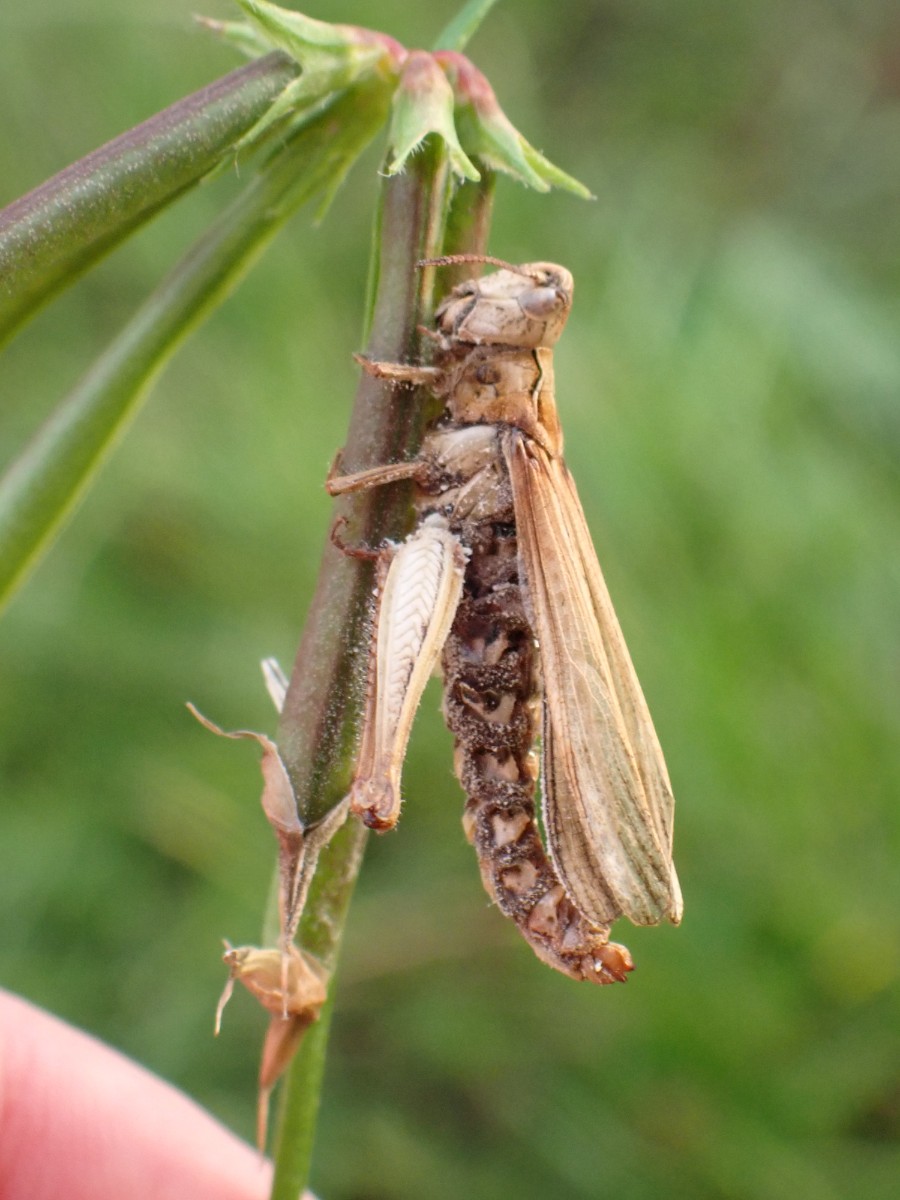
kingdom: Fungi
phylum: Entomophthoromycota
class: Entomophthoromycetes
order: Entomophthorales
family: Entomophthoraceae
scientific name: Entomophthoraceae
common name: flueskimmelfamilien
